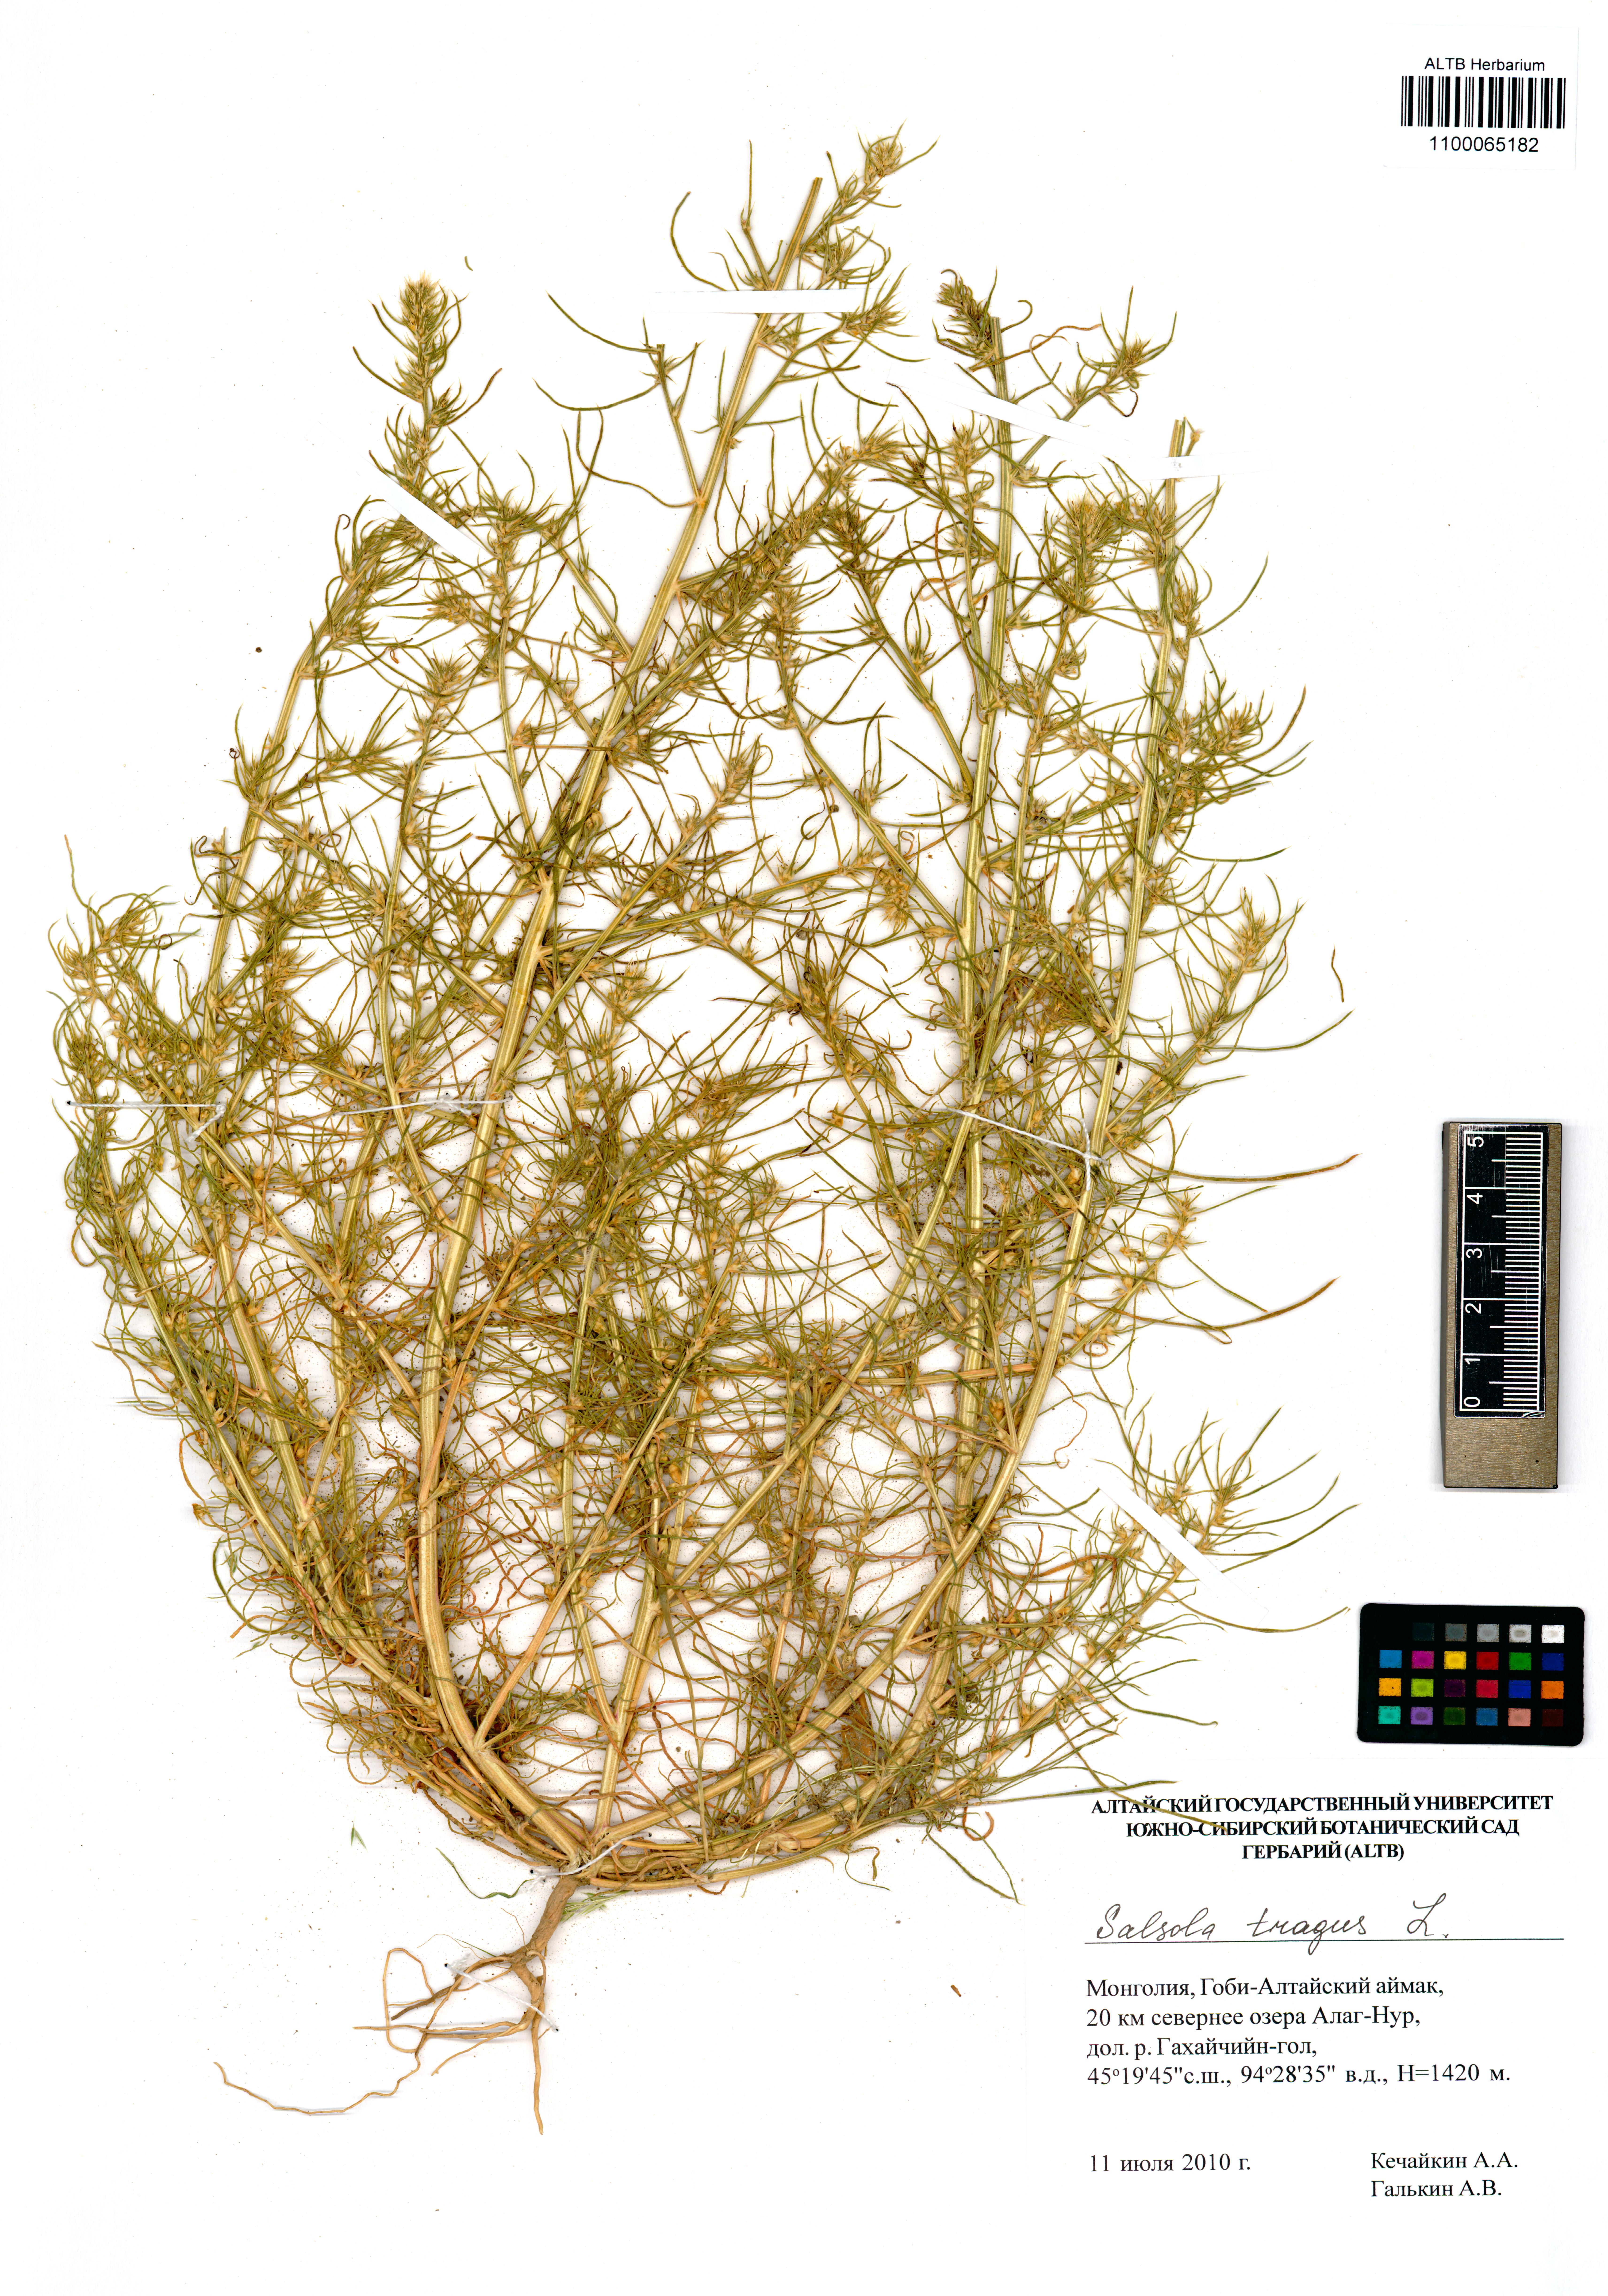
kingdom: Plantae
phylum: Tracheophyta
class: Magnoliopsida
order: Caryophyllales
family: Amaranthaceae
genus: Salsola
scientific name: Salsola tragus
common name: Prickly russian thistle
